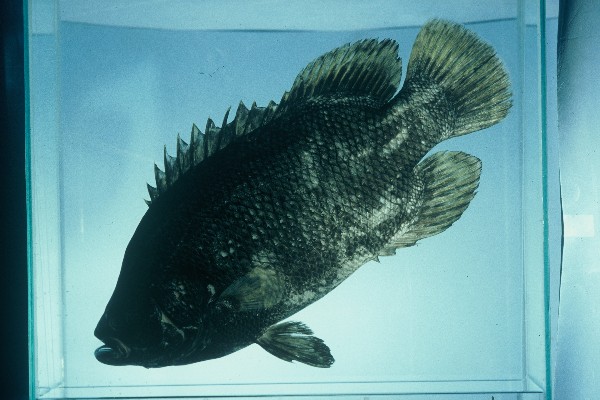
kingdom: Animalia
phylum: Chordata
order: Perciformes
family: Lobotidae
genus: Lobotes
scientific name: Lobotes surinamensis
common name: Atlantic tripletail
